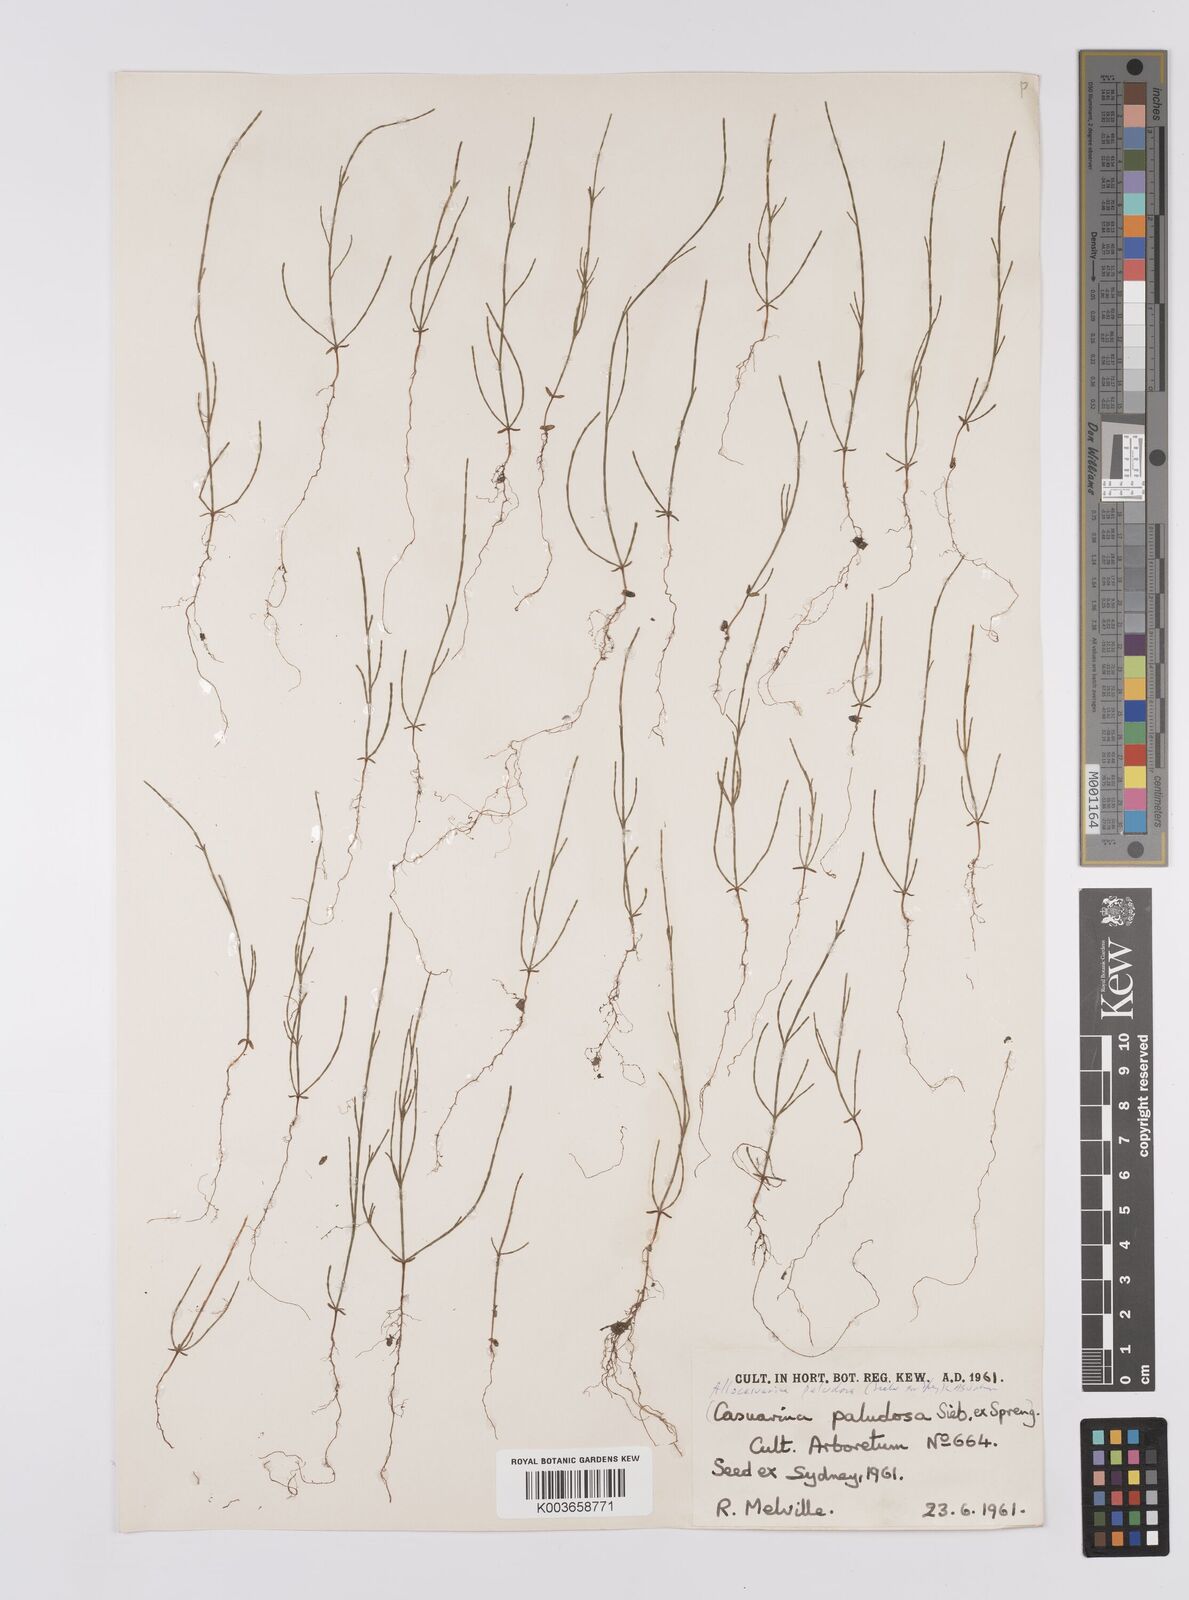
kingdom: Plantae
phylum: Tracheophyta
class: Magnoliopsida
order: Fagales
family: Casuarinaceae
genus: Allocasuarina
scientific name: Allocasuarina paludosa
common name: Scrub she-oak
